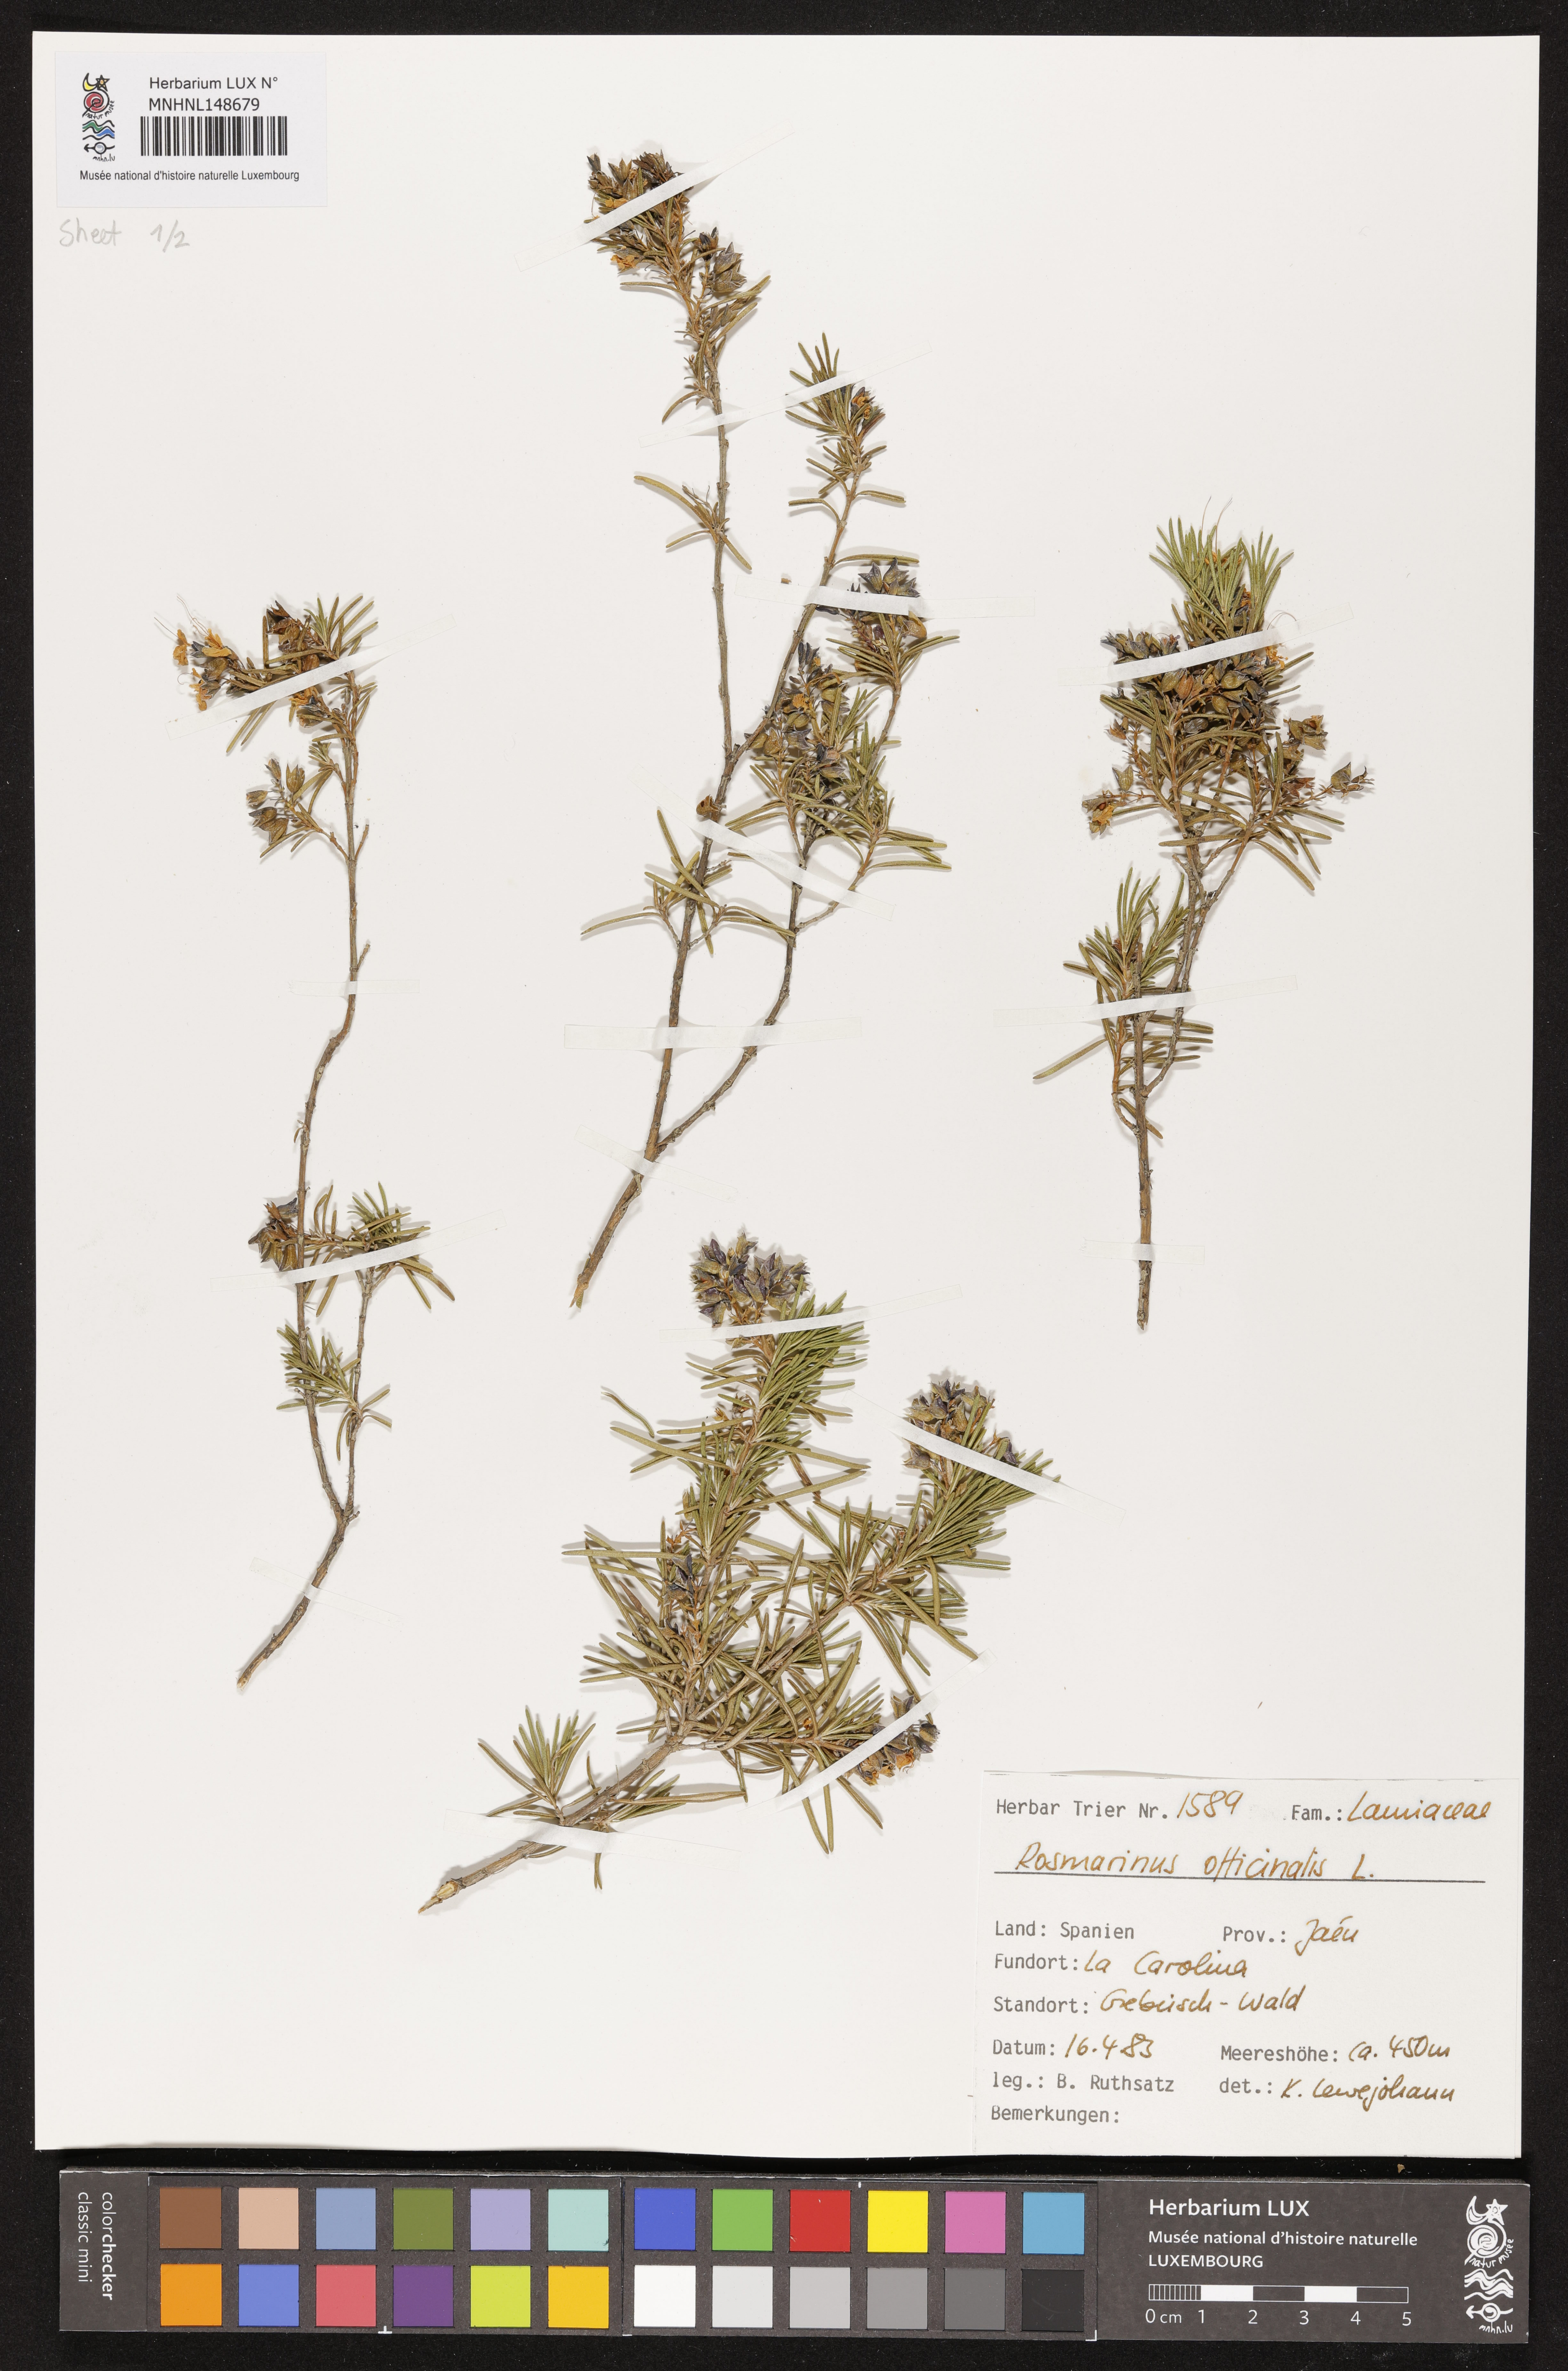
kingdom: Plantae
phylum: Tracheophyta
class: Magnoliopsida
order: Lamiales
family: Lamiaceae
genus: Salvia
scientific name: Salvia rosmarinus
